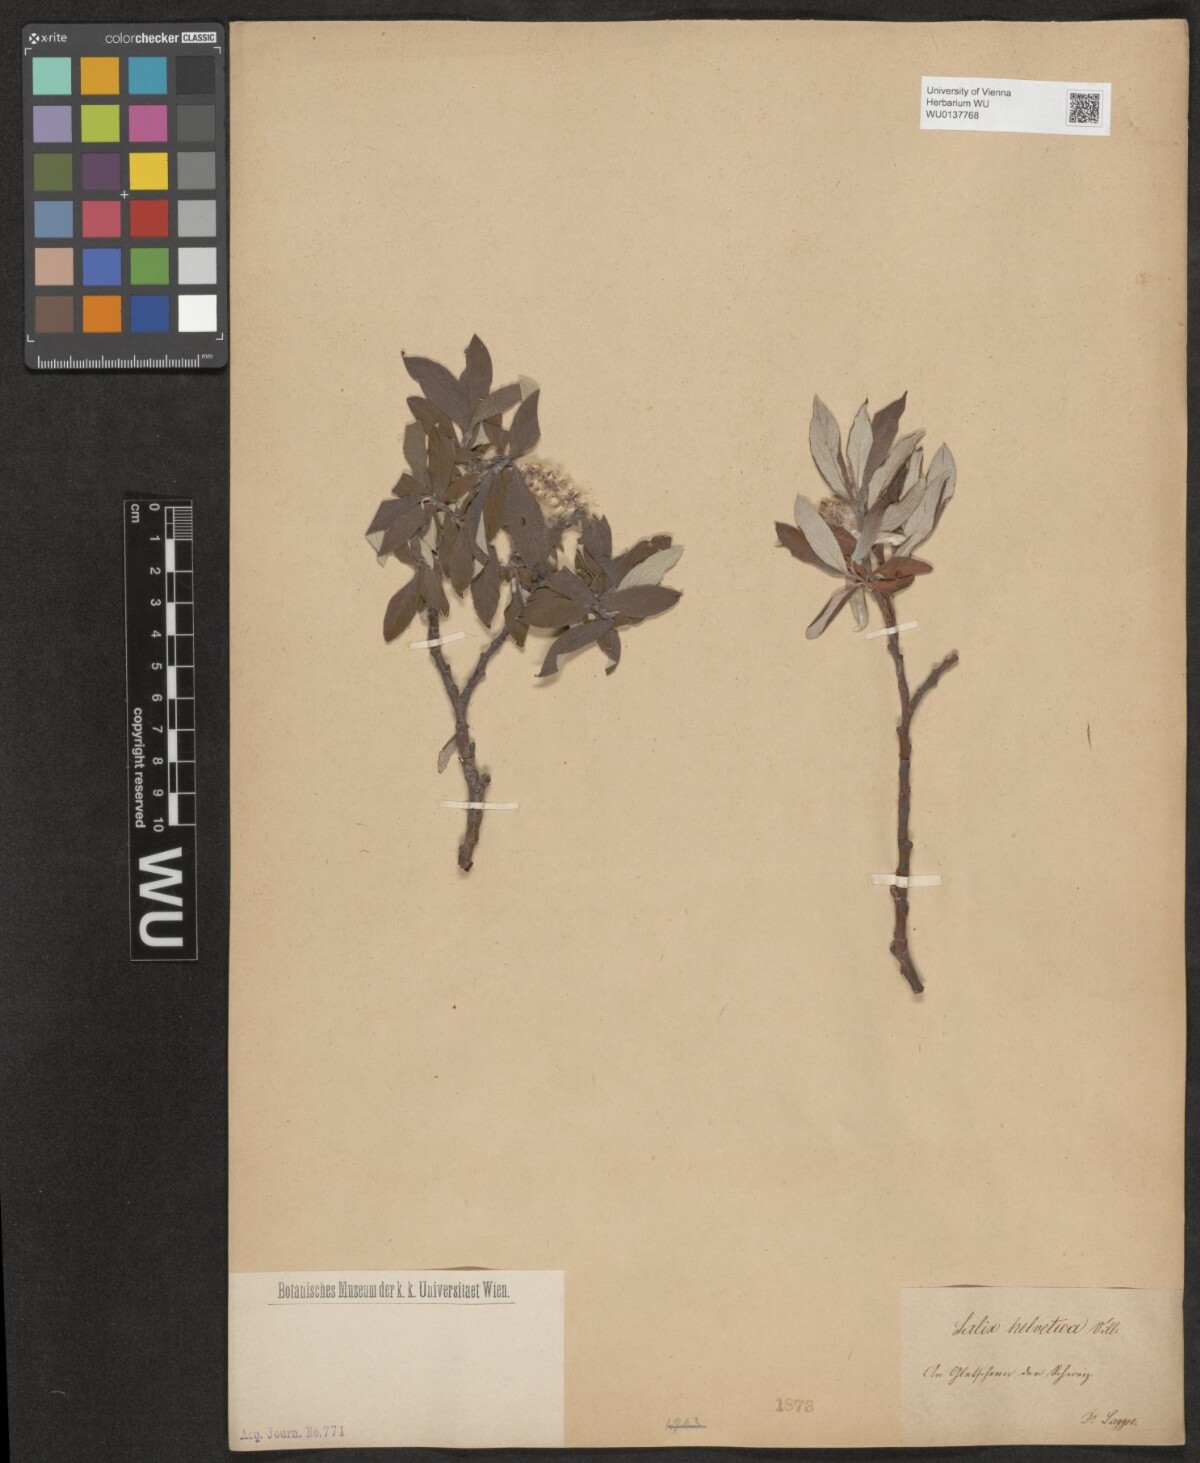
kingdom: Plantae
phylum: Tracheophyta
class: Magnoliopsida
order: Malpighiales
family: Salicaceae
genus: Salix
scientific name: Salix helvetica
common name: Swiss willow
